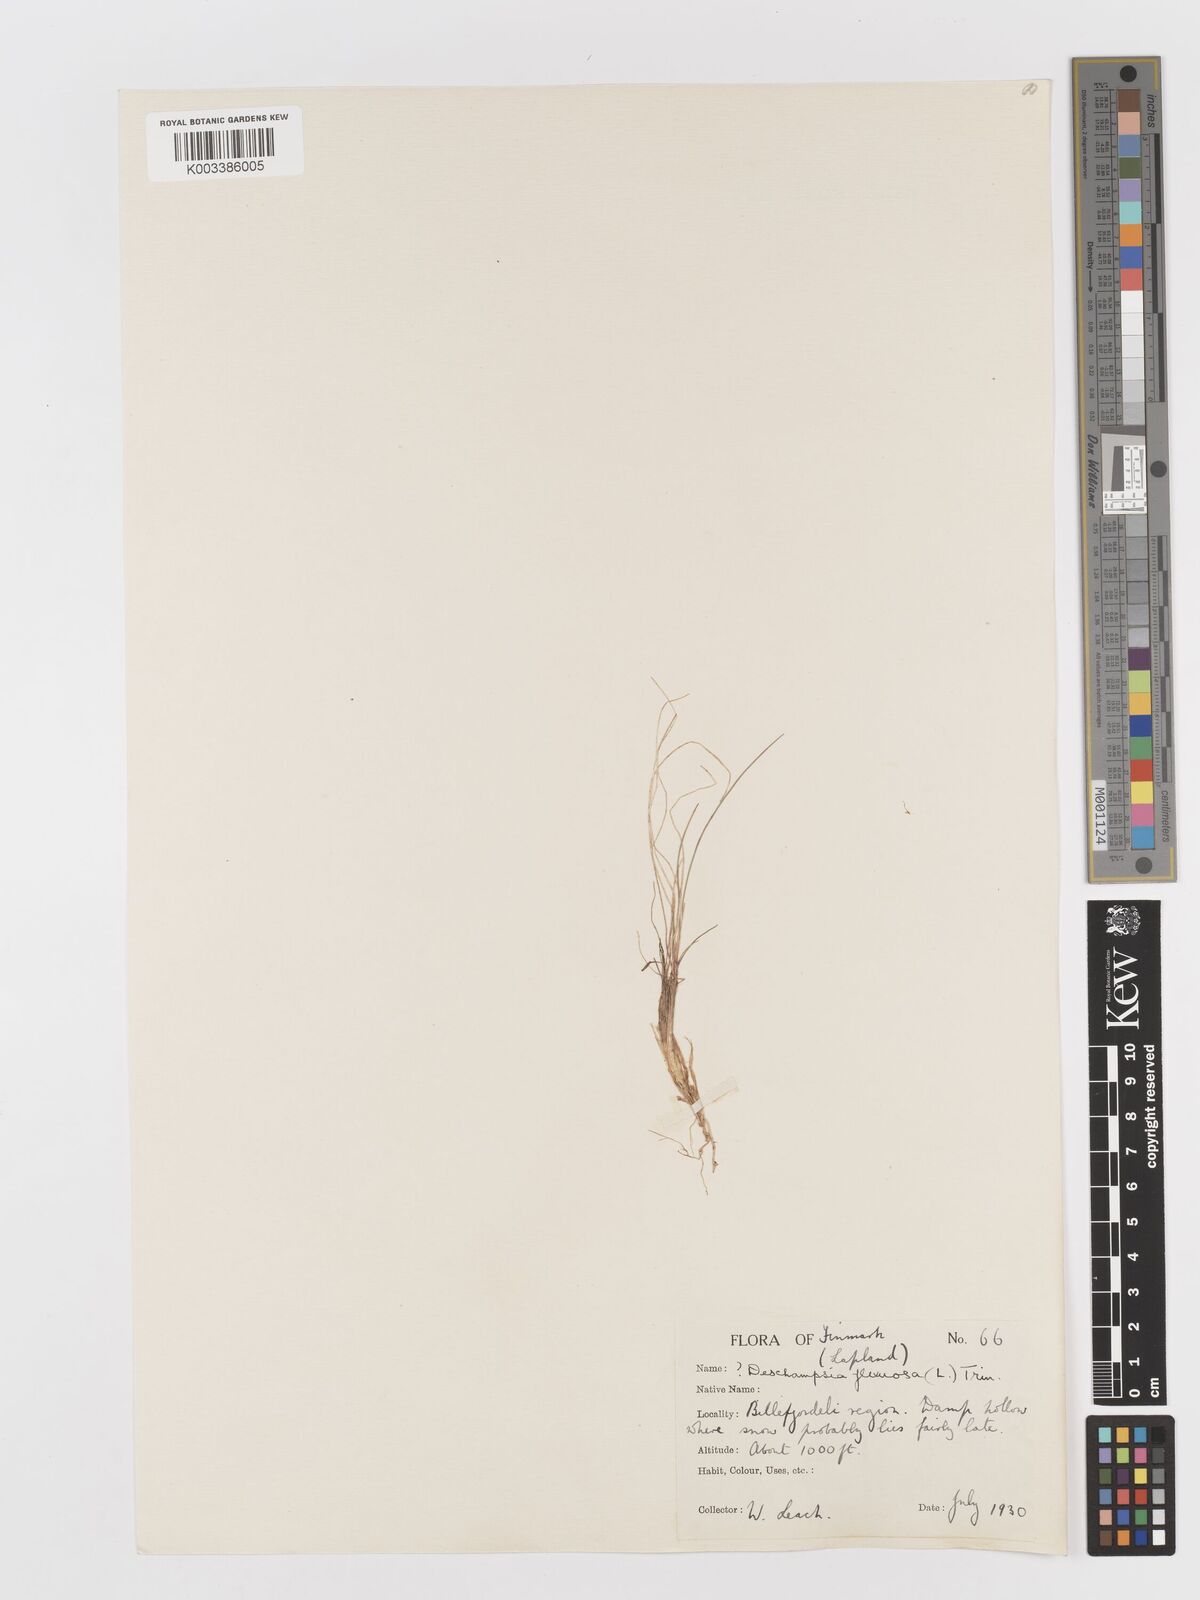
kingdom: Plantae
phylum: Tracheophyta
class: Liliopsida
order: Poales
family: Poaceae
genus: Avenella
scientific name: Avenella flexuosa
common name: Wavy hairgrass
